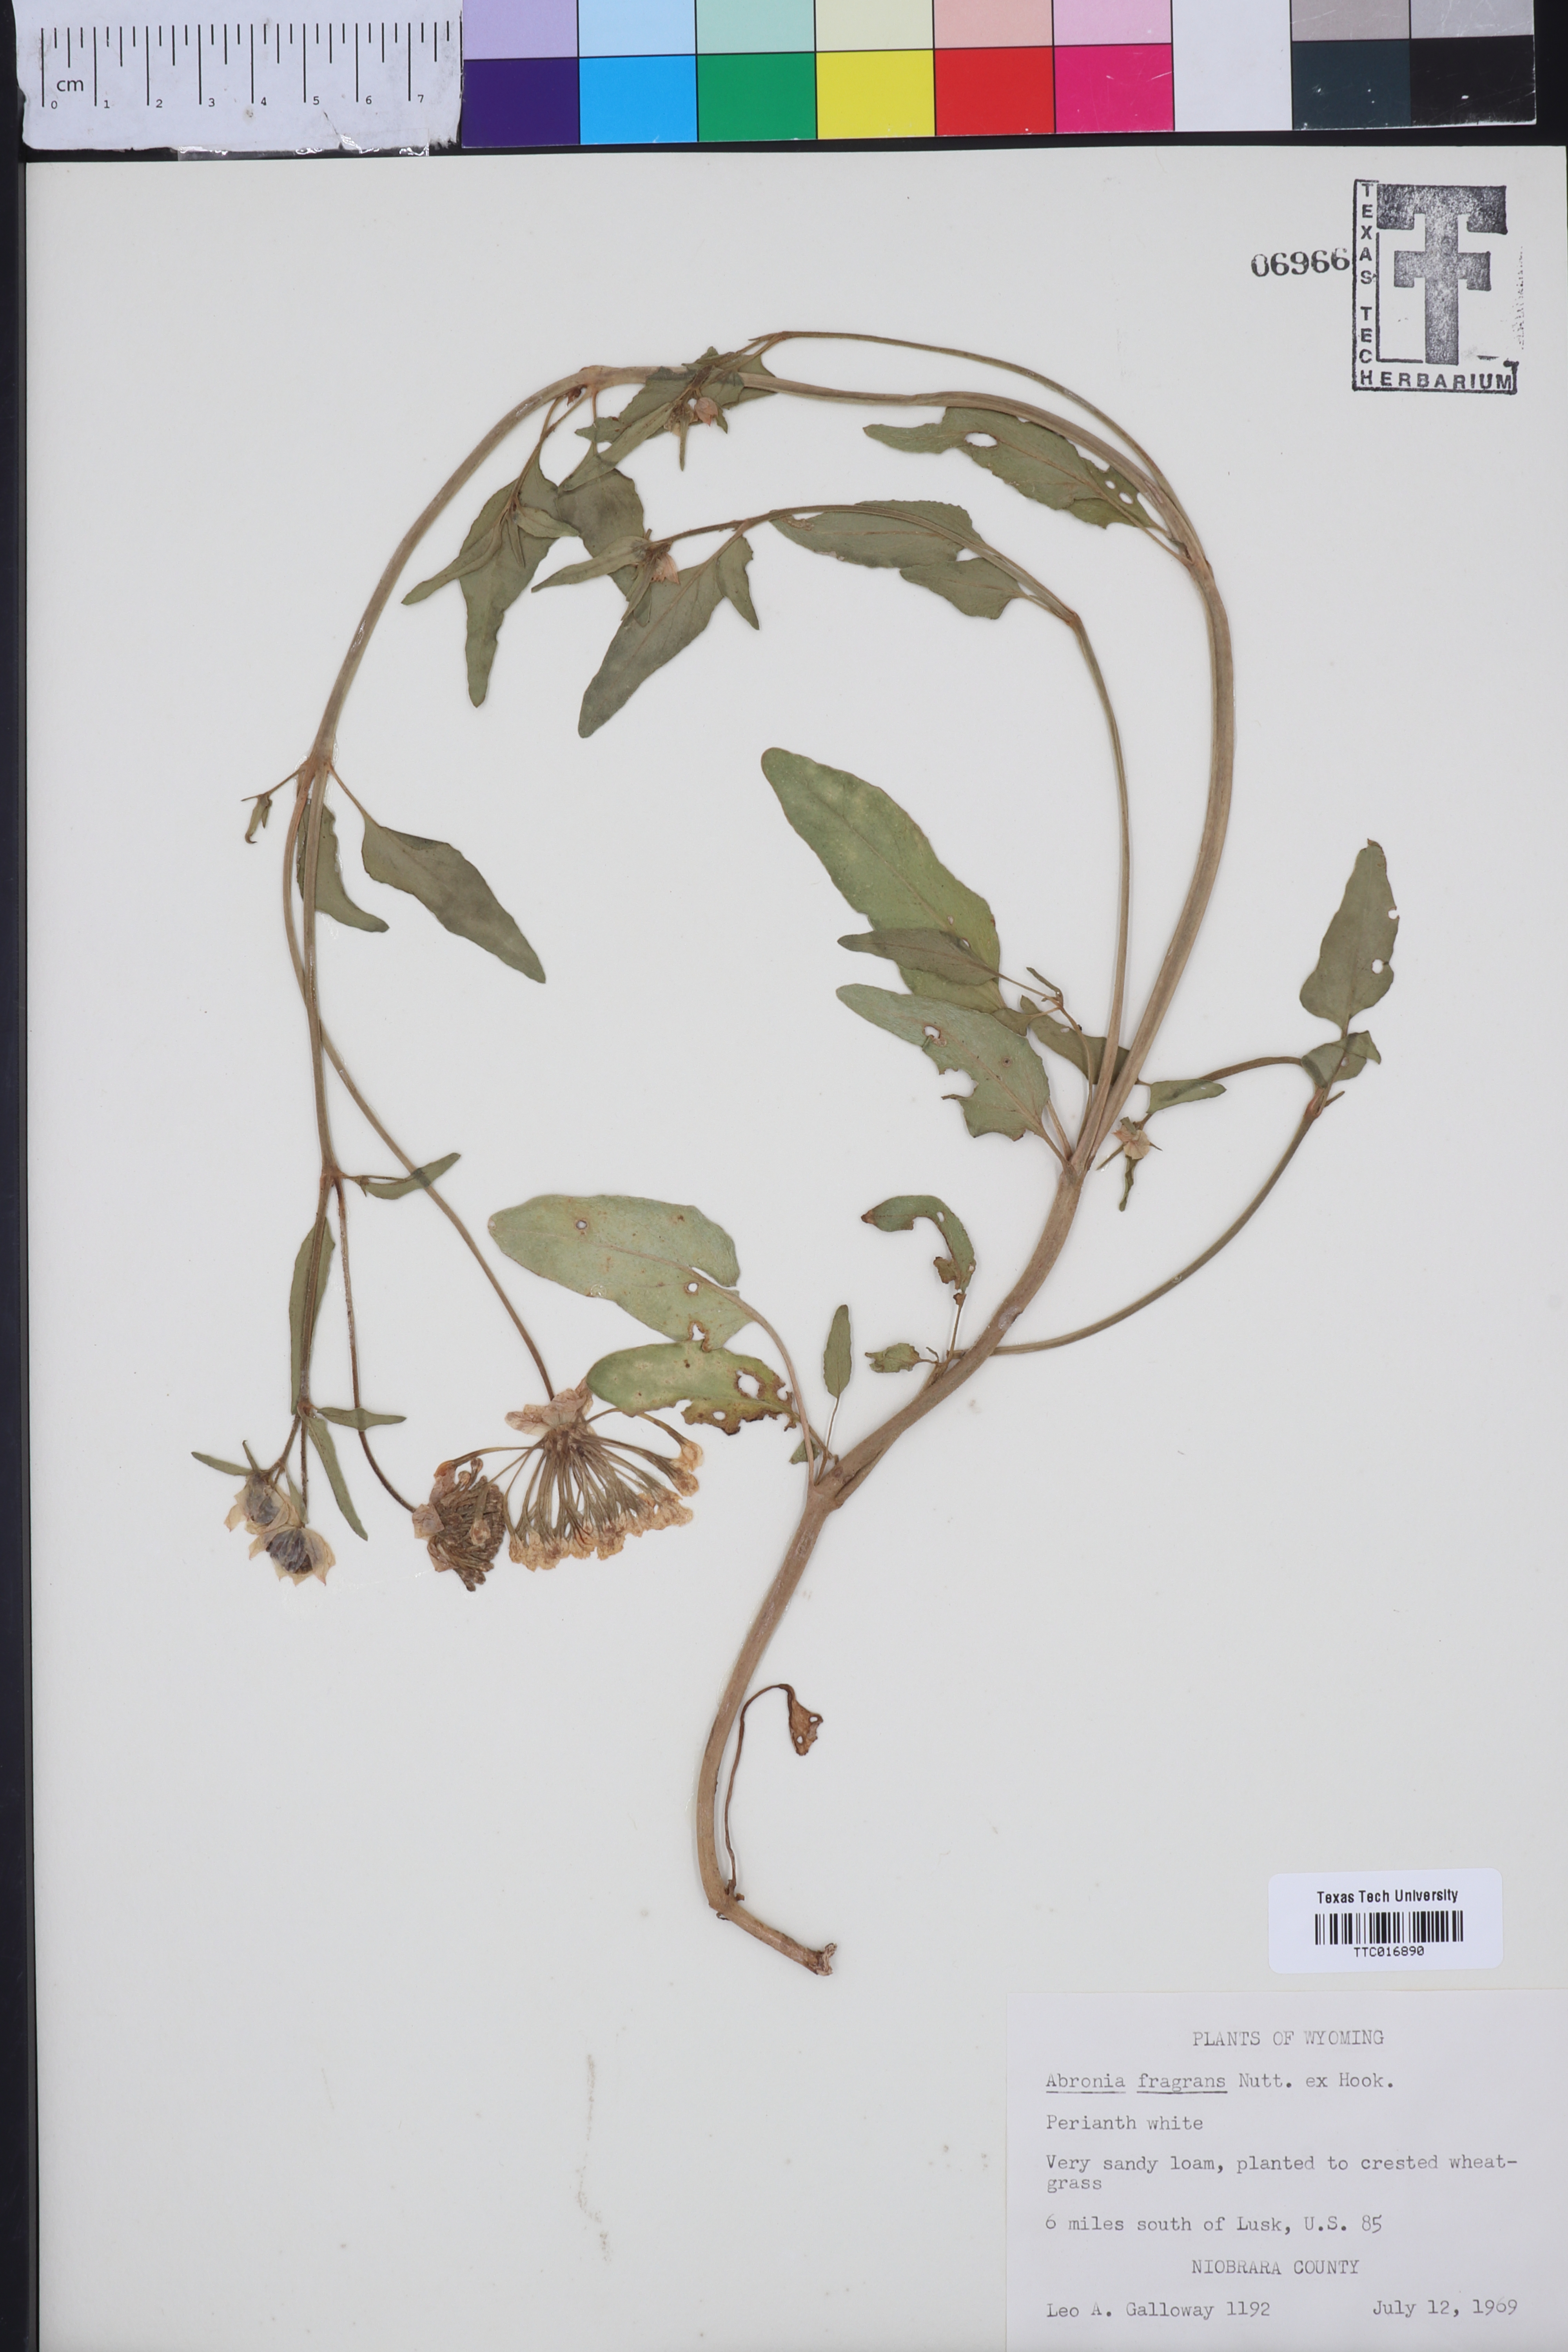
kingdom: Plantae
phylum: Tracheophyta
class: Magnoliopsida
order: Caryophyllales
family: Nyctaginaceae
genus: Abronia
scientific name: Abronia fragrans
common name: Fragrant sand-verbena
